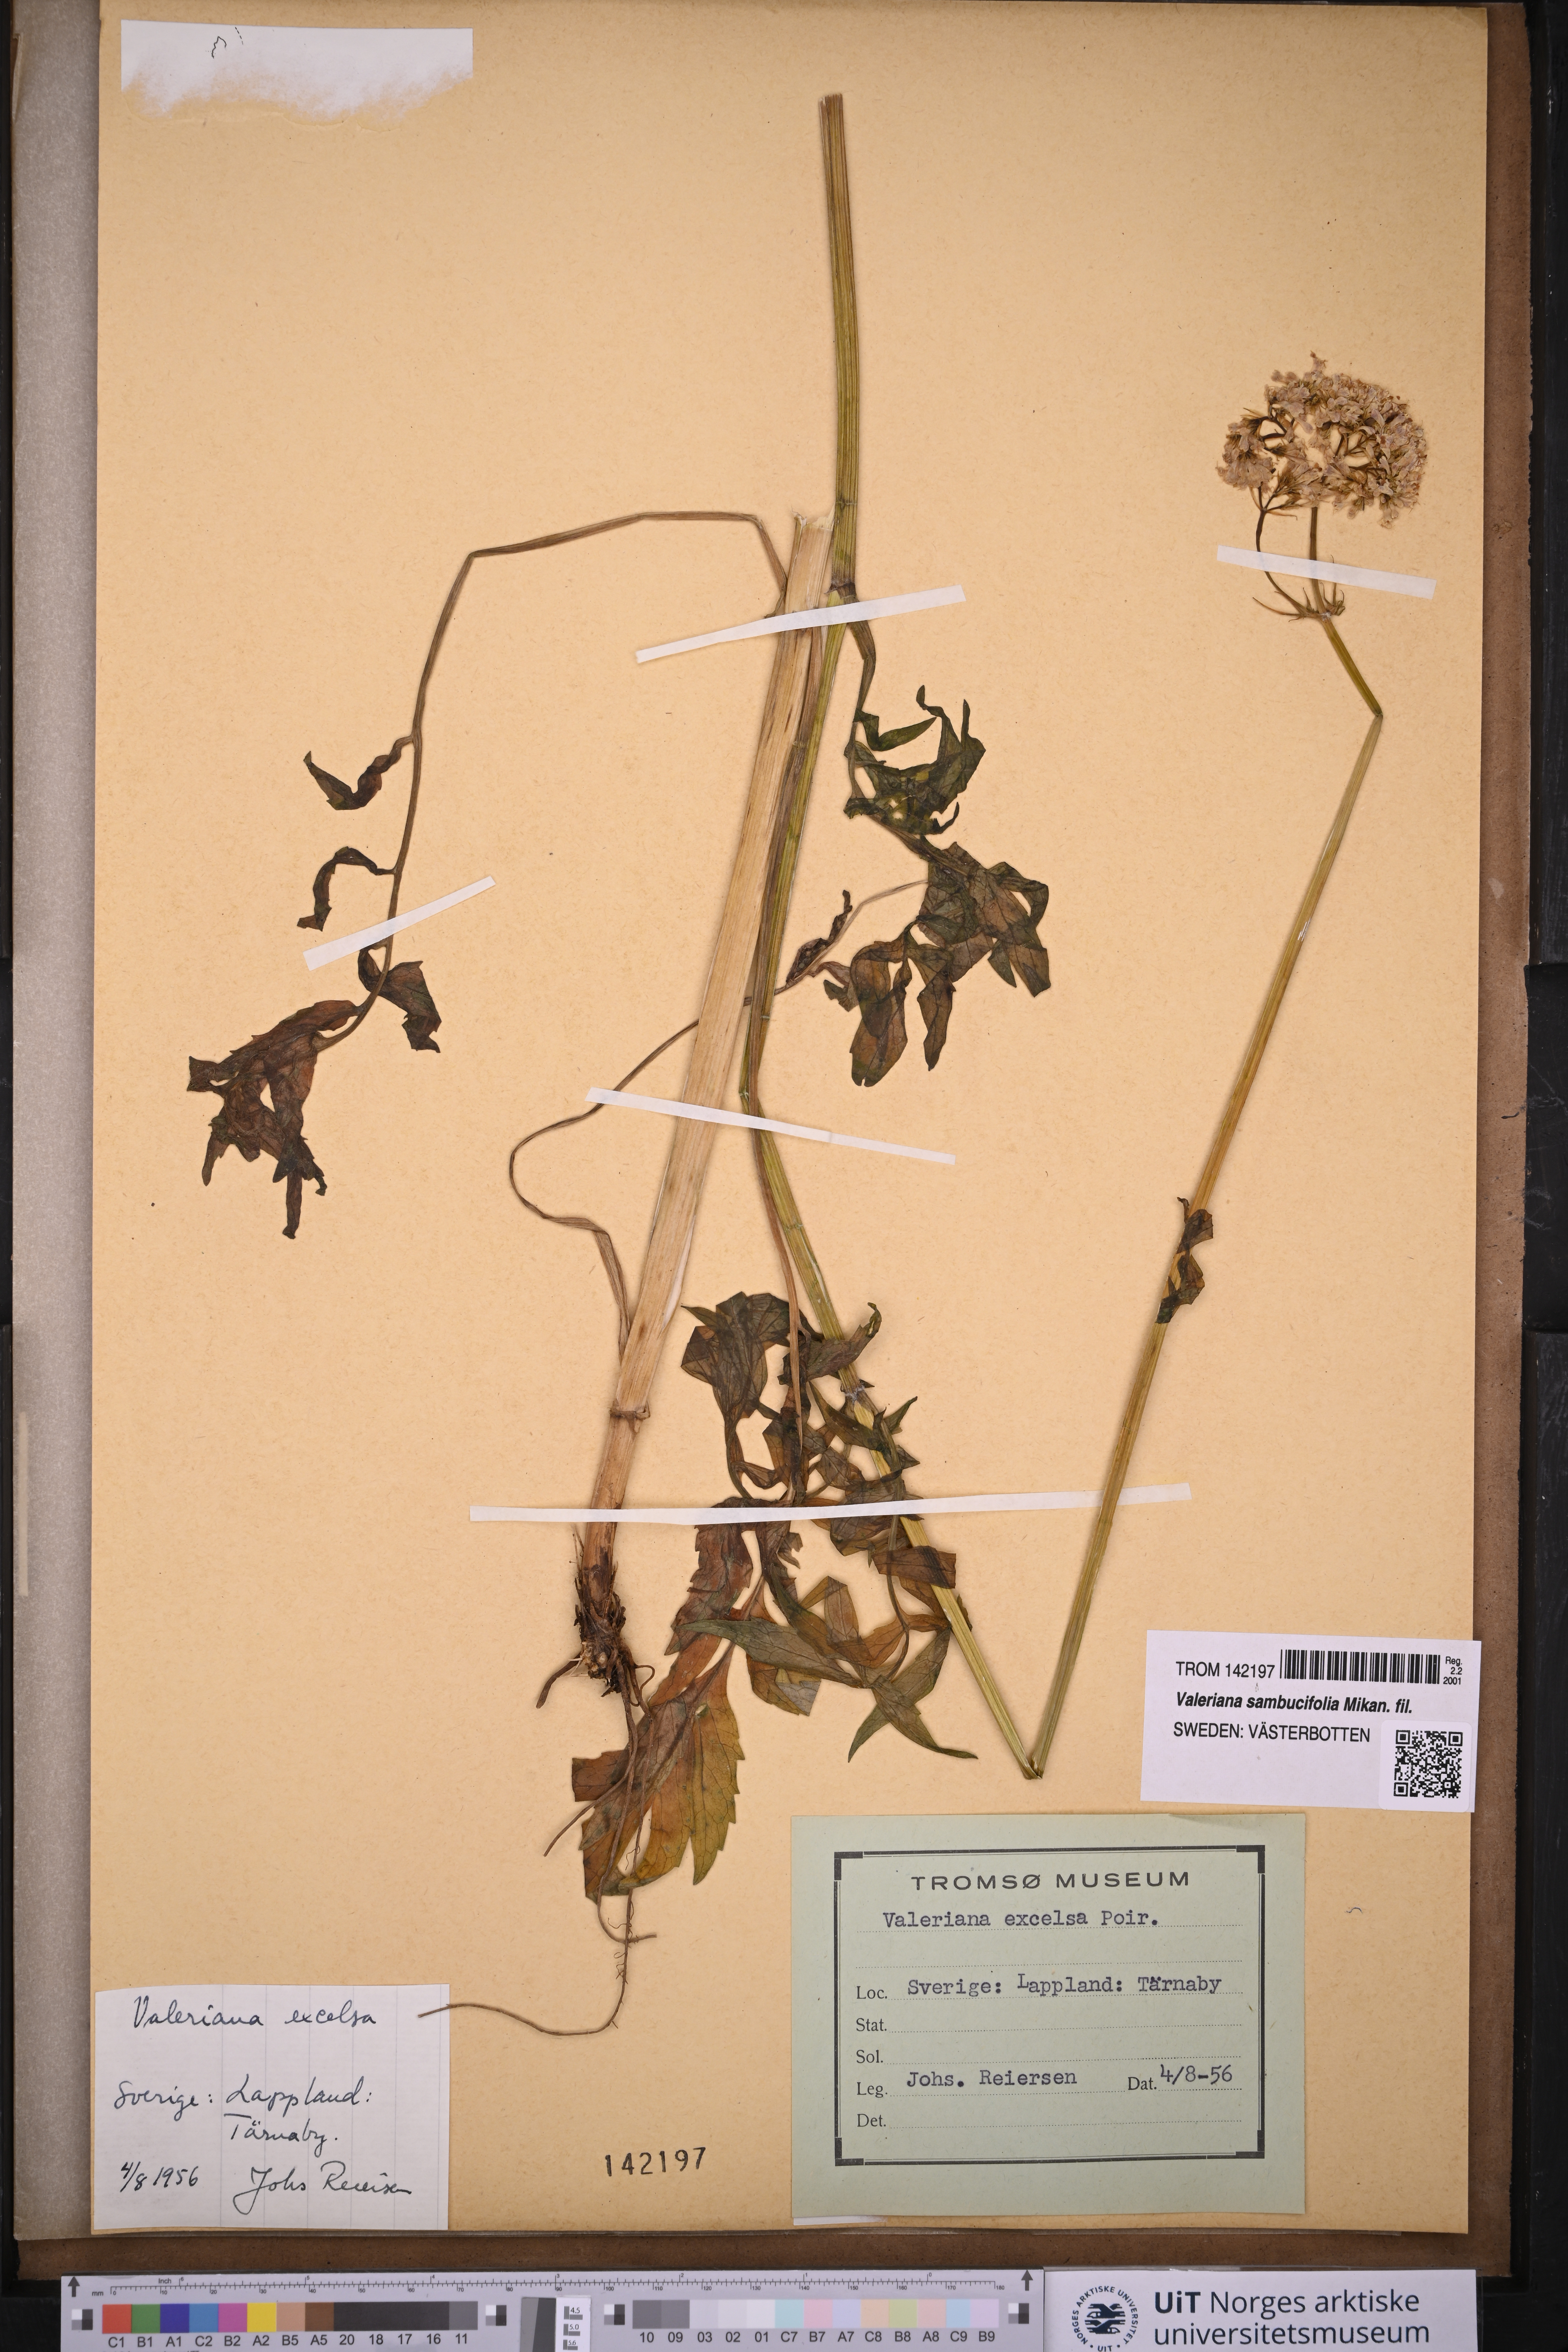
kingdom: Plantae
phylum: Tracheophyta
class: Magnoliopsida
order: Dipsacales
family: Caprifoliaceae
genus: Valeriana
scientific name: Valeriana sambucifolia
